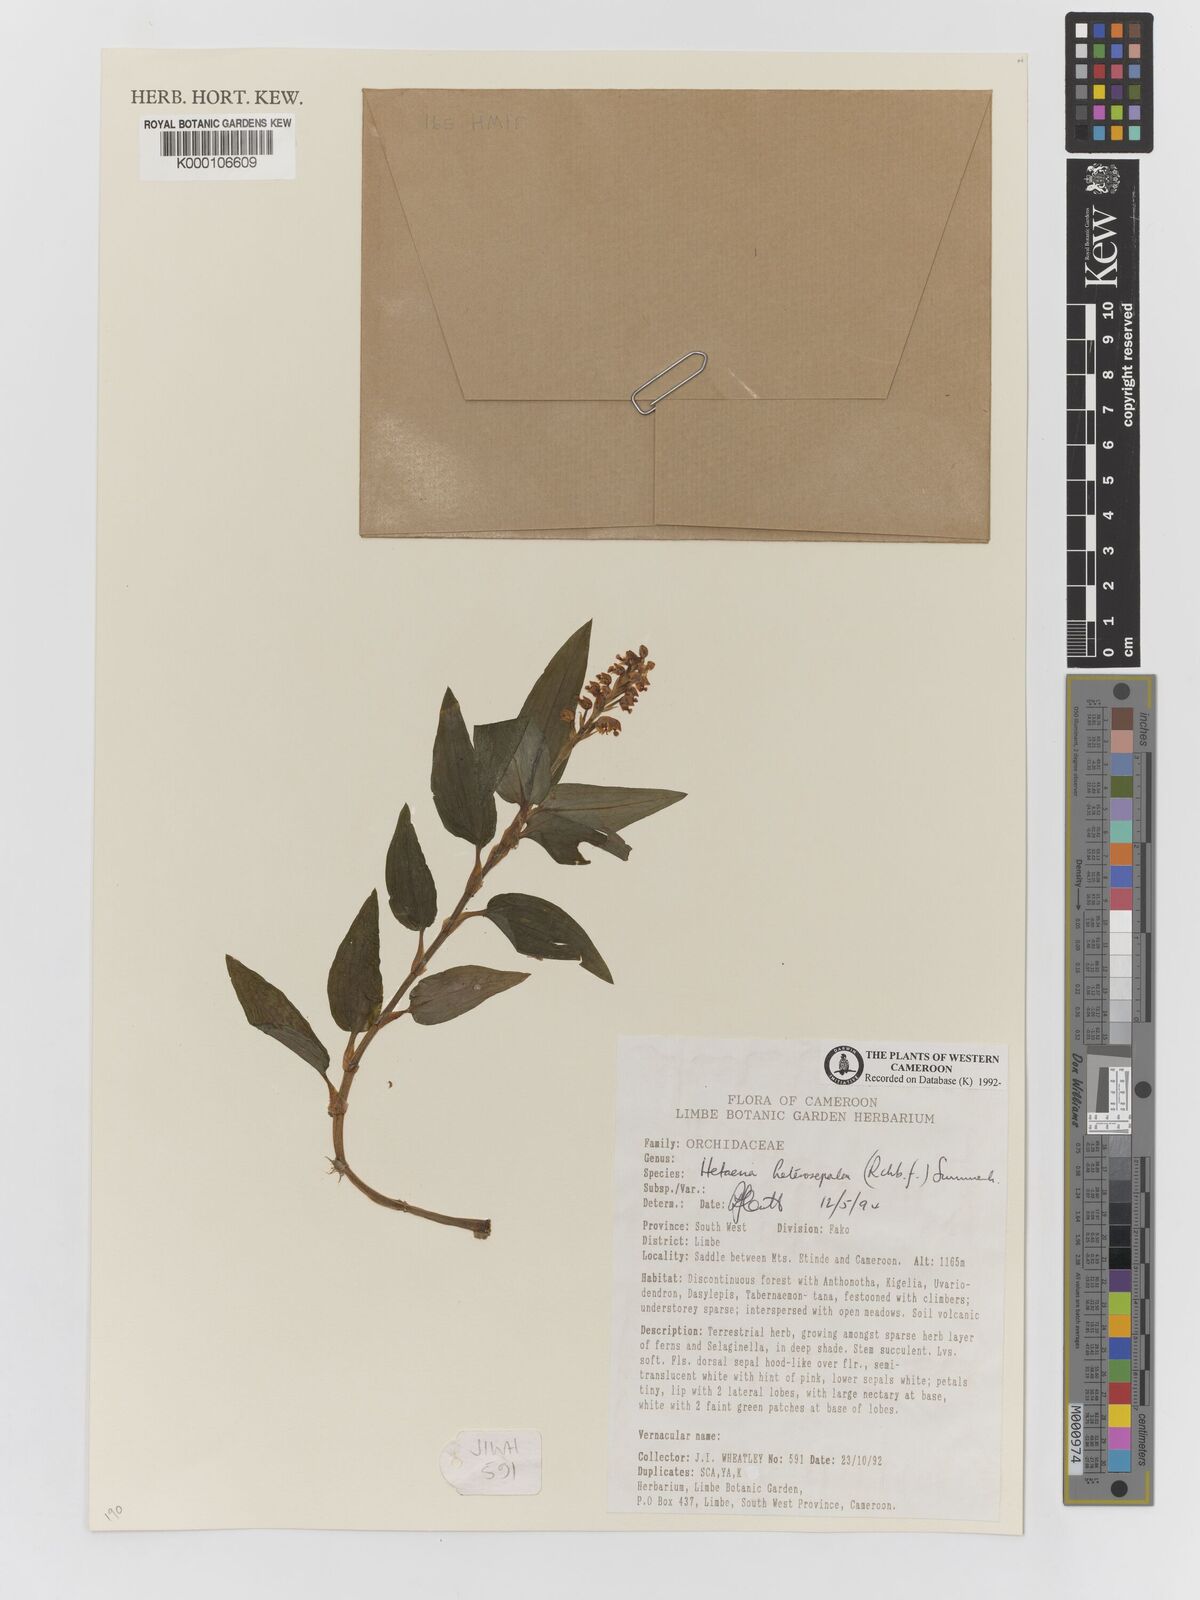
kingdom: Plantae
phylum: Tracheophyta
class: Liliopsida
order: Asparagales
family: Orchidaceae
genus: Acampe
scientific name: Acampe
